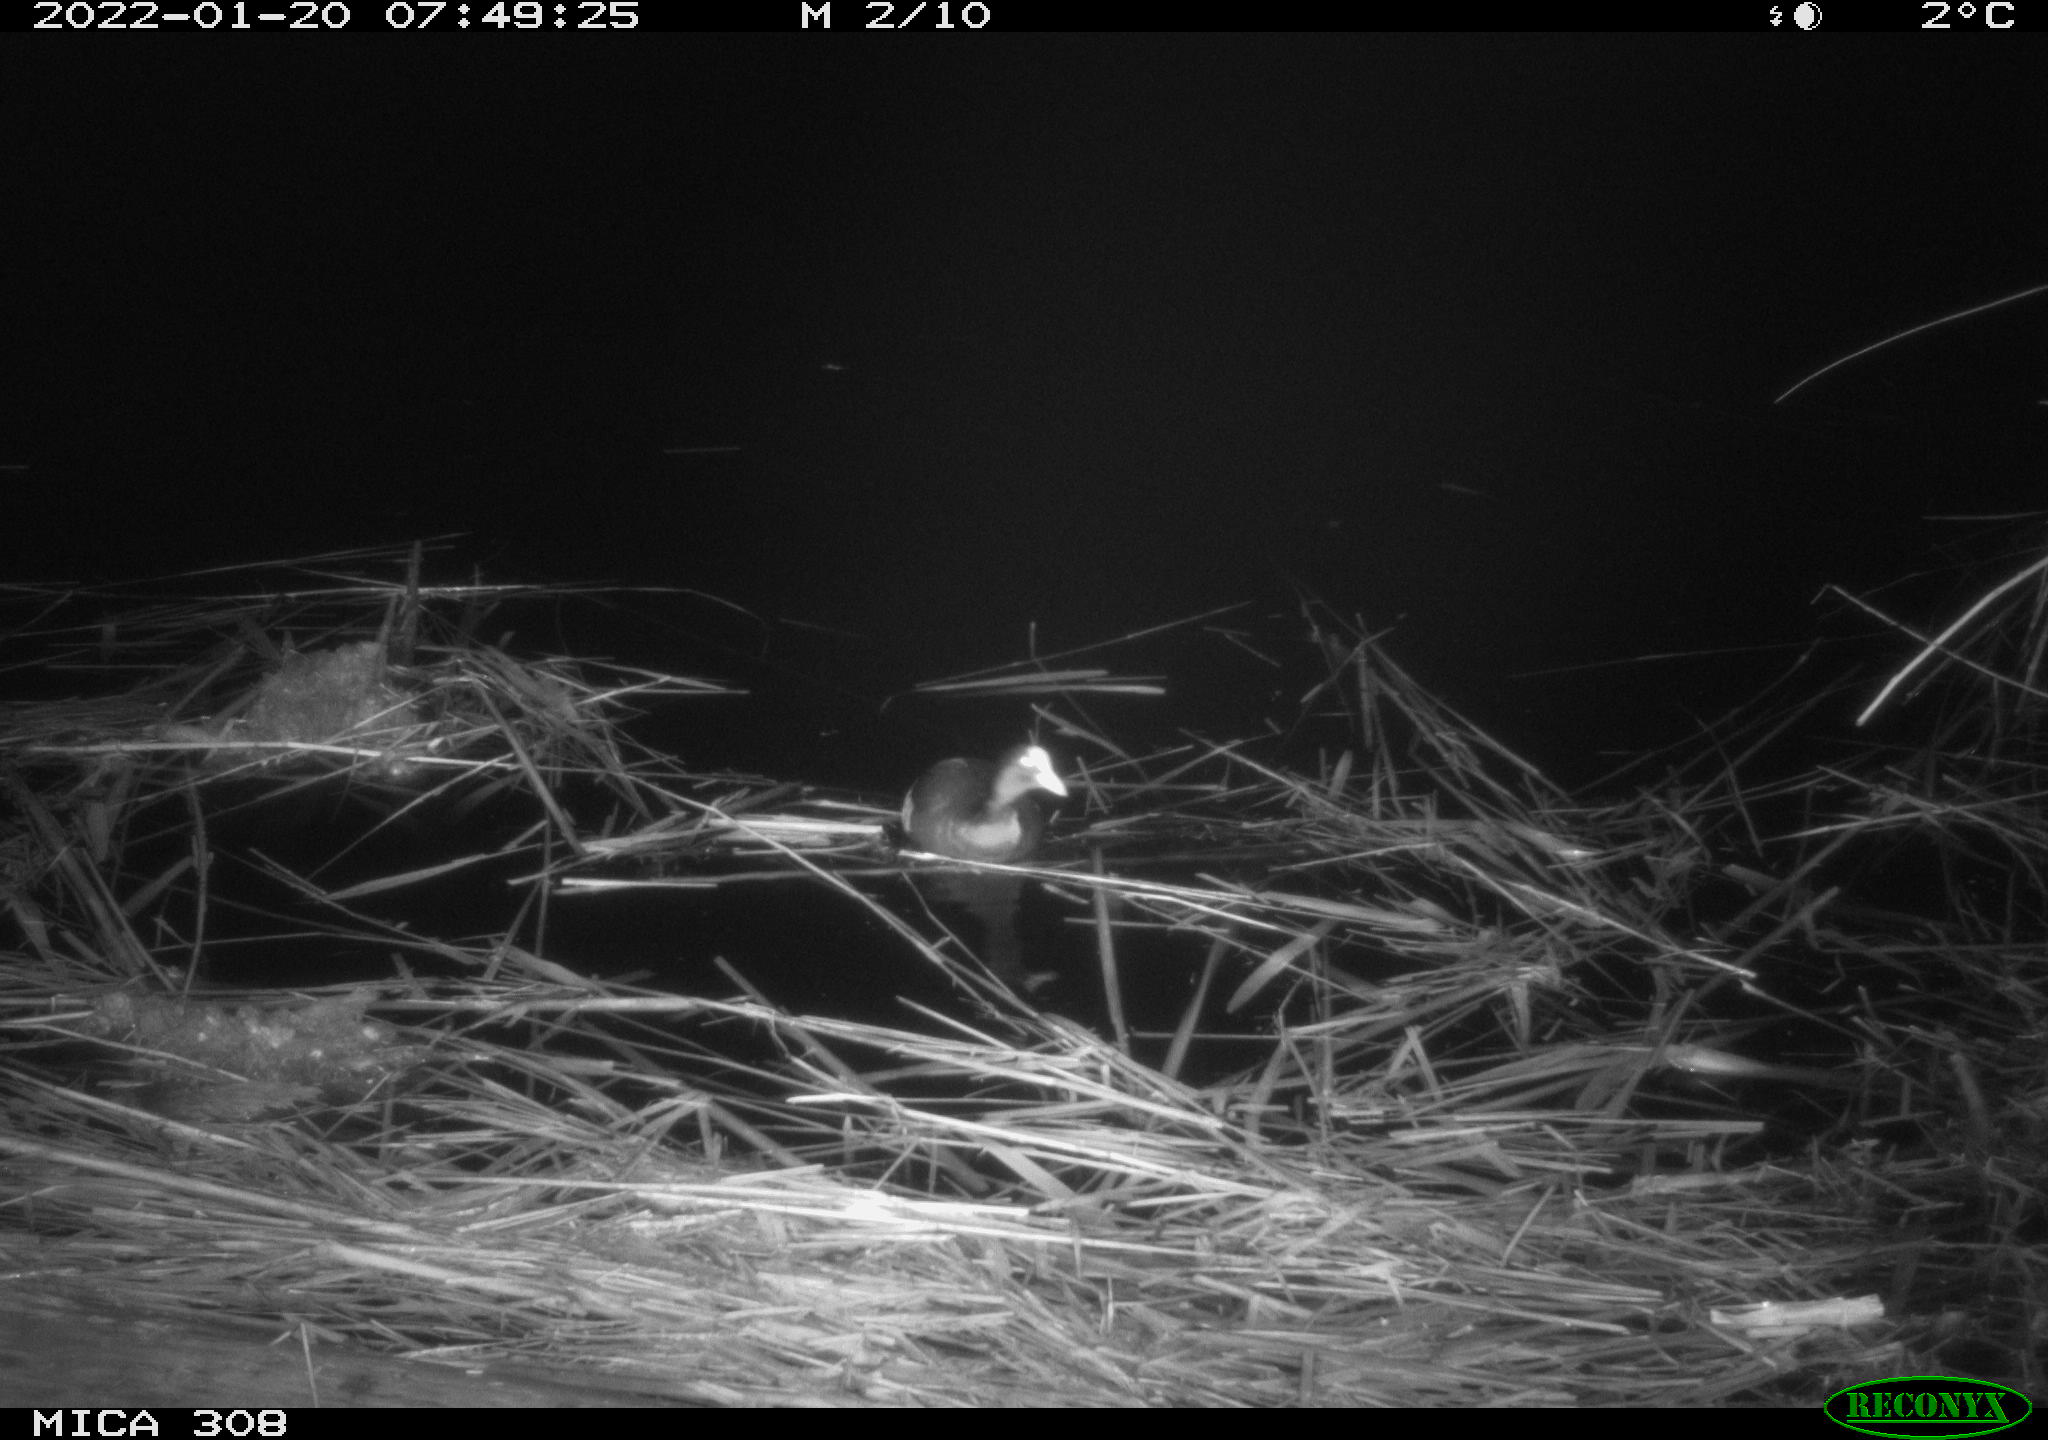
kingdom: Animalia
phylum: Chordata
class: Aves
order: Gruiformes
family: Rallidae
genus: Fulica
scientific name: Fulica atra
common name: Eurasian coot
